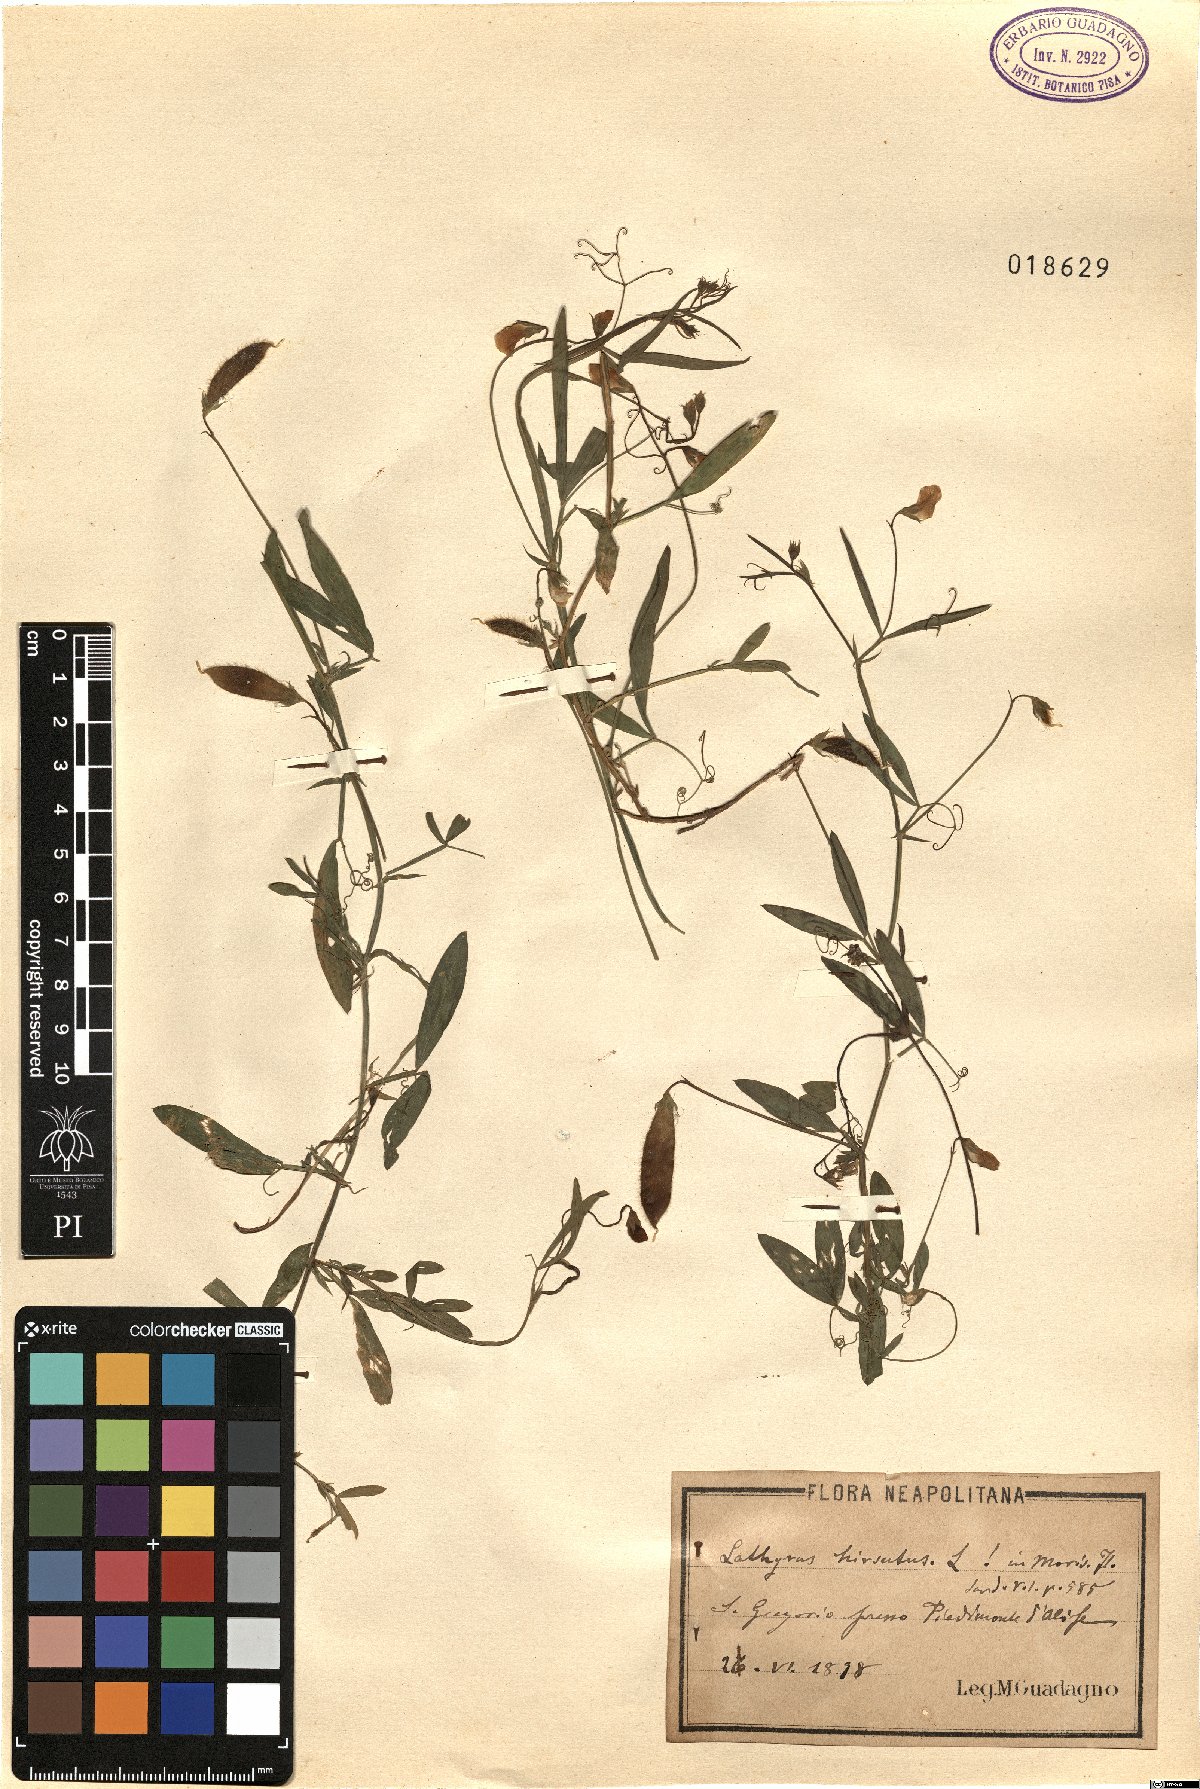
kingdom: Plantae
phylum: Tracheophyta
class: Magnoliopsida
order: Fabales
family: Fabaceae
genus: Lathyrus
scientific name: Lathyrus hirsutus
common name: Hairy vetchling
